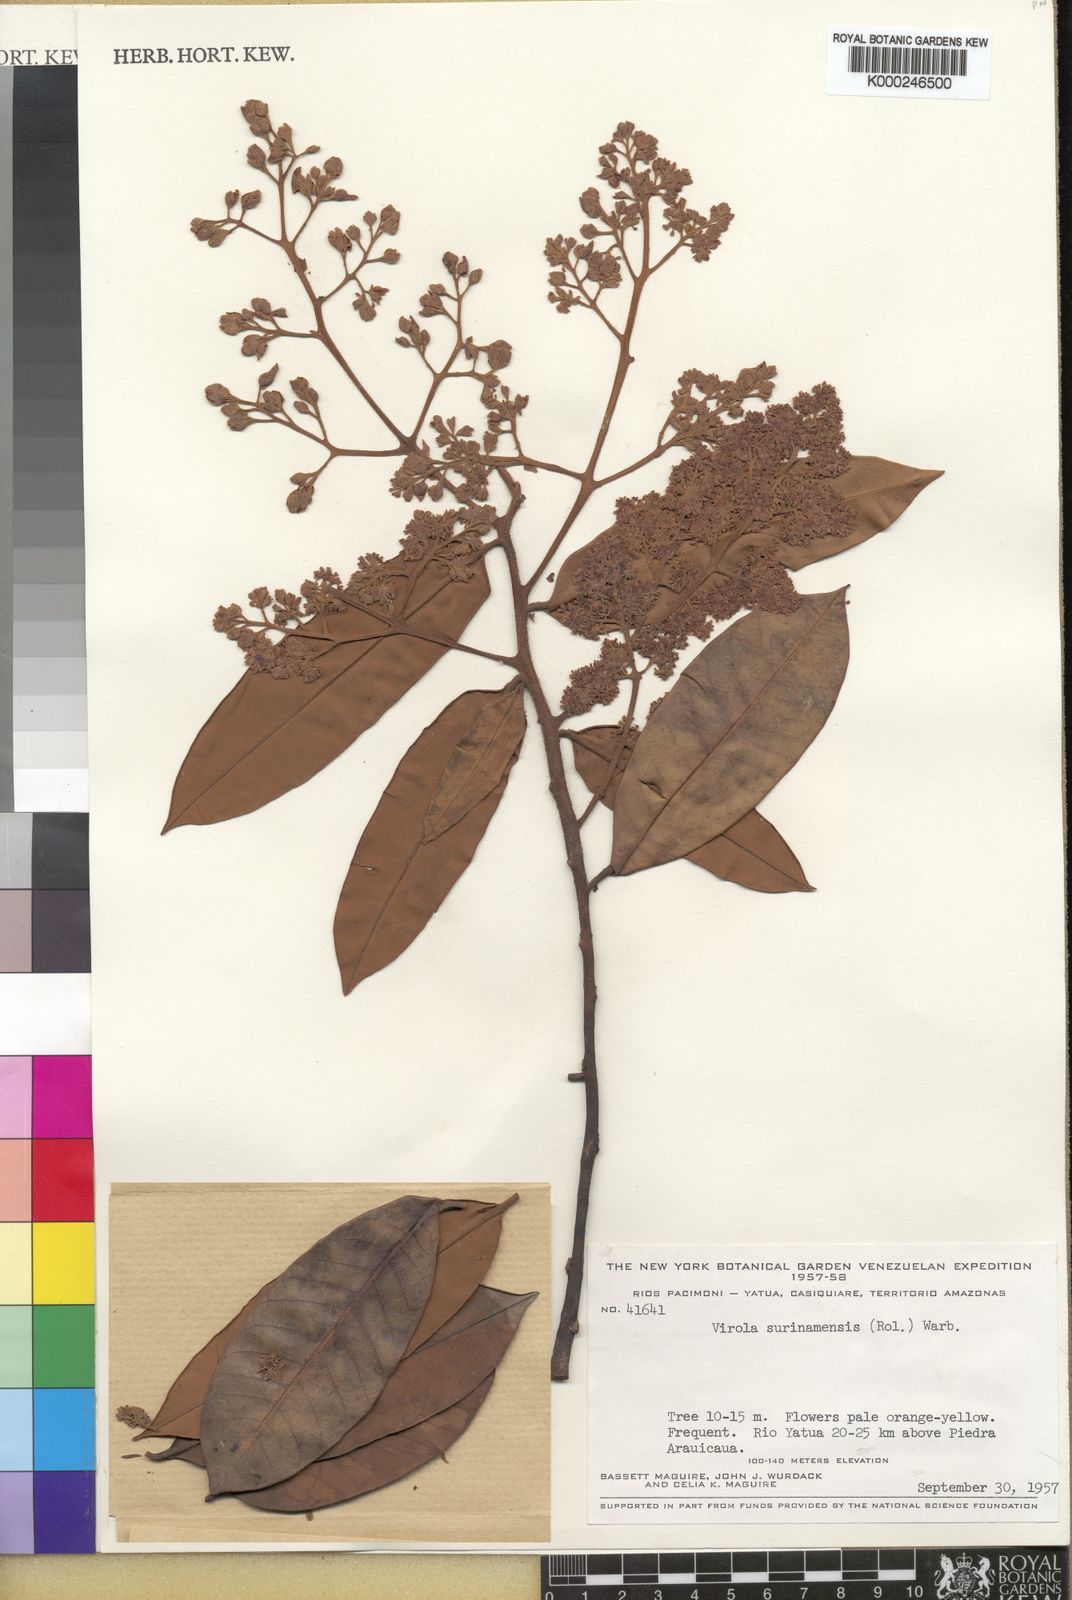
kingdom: Plantae
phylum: Tracheophyta
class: Magnoliopsida
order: Magnoliales
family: Myristicaceae
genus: Virola
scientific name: Virola surinamensis
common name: Baboonwood
